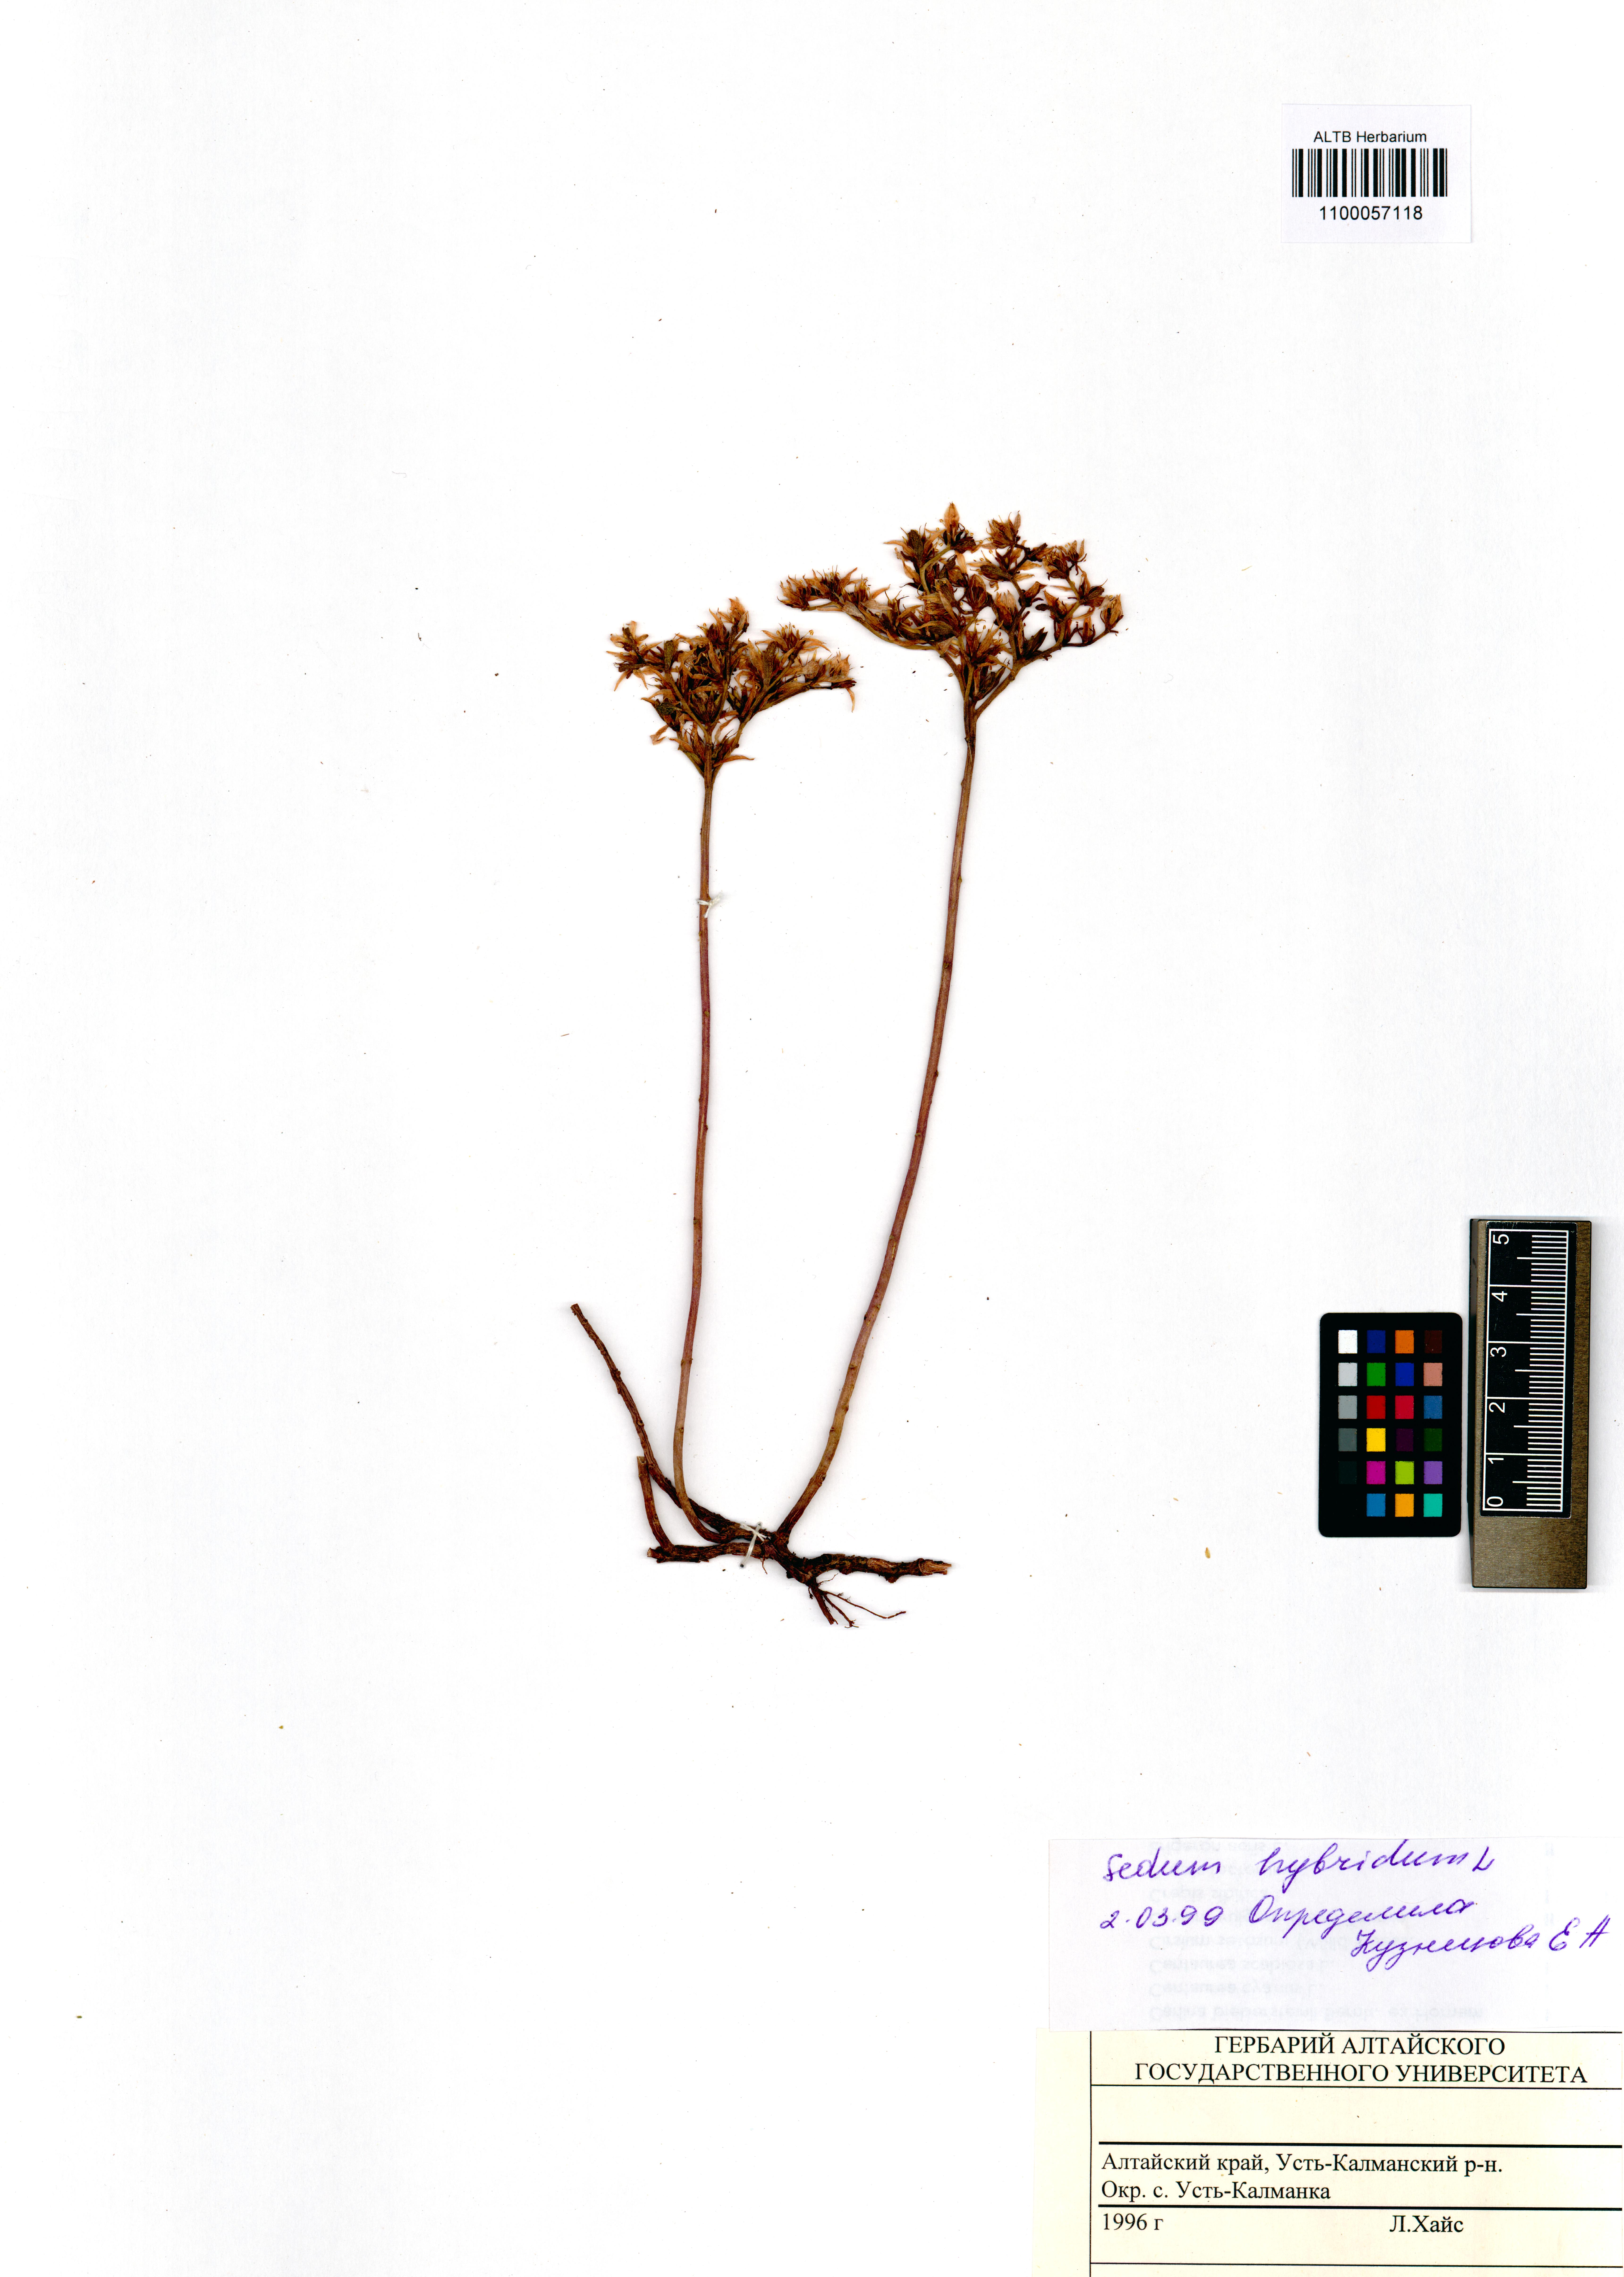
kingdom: Plantae
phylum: Tracheophyta
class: Magnoliopsida
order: Saxifragales
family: Crassulaceae
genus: Phedimus
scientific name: Phedimus hybridus
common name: Hybrid stonecrop
